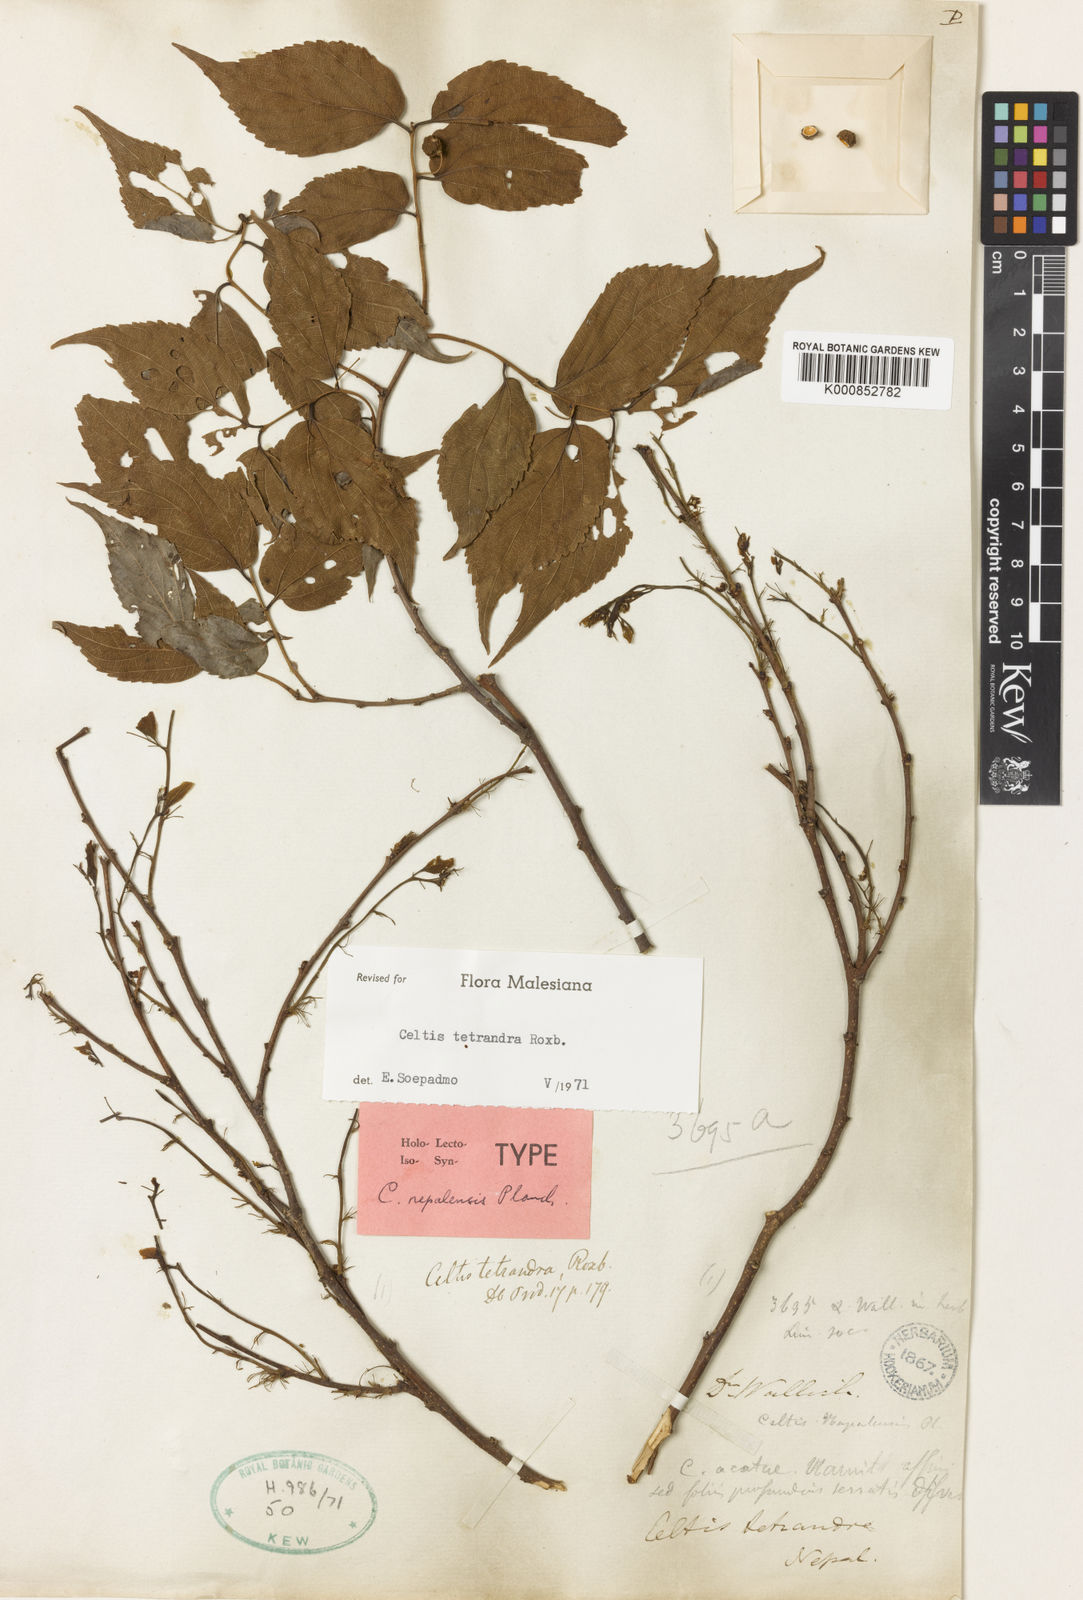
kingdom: Plantae
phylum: Tracheophyta
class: Magnoliopsida
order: Rosales
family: Cannabaceae
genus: Celtis
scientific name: Celtis tetrandra
